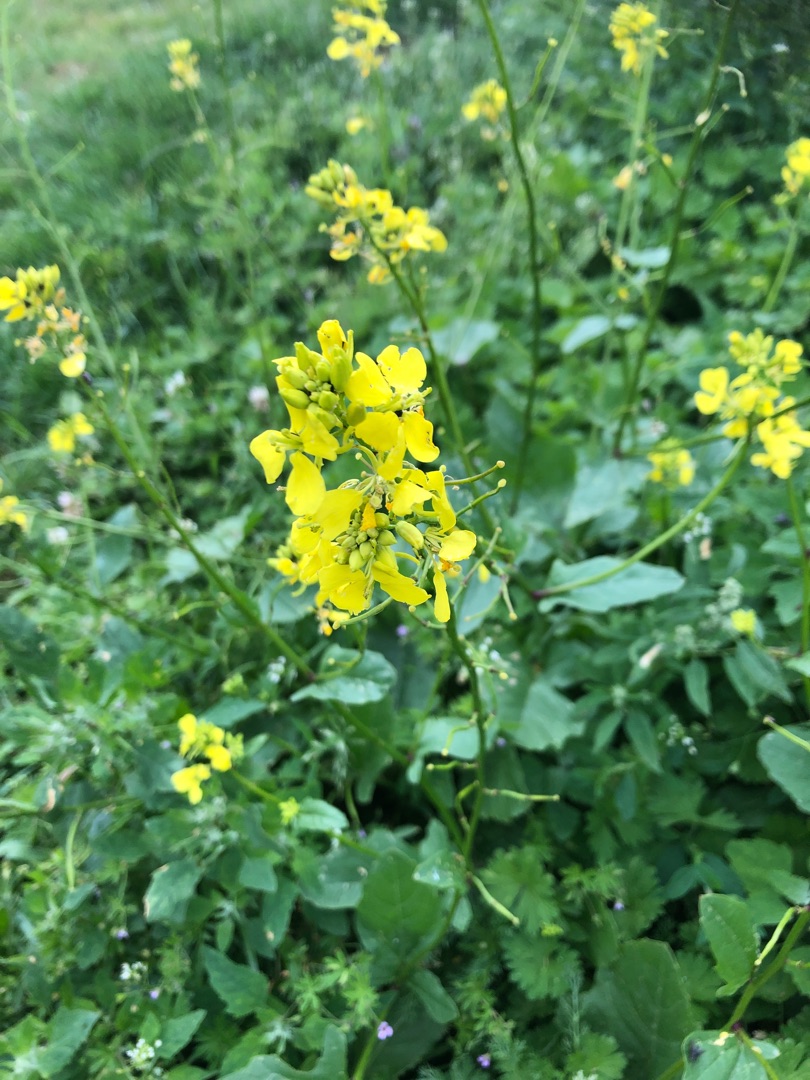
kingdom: Plantae
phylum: Tracheophyta
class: Magnoliopsida
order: Brassicales
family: Brassicaceae
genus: Sinapis
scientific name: Sinapis arvensis
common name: Ager-sennep
